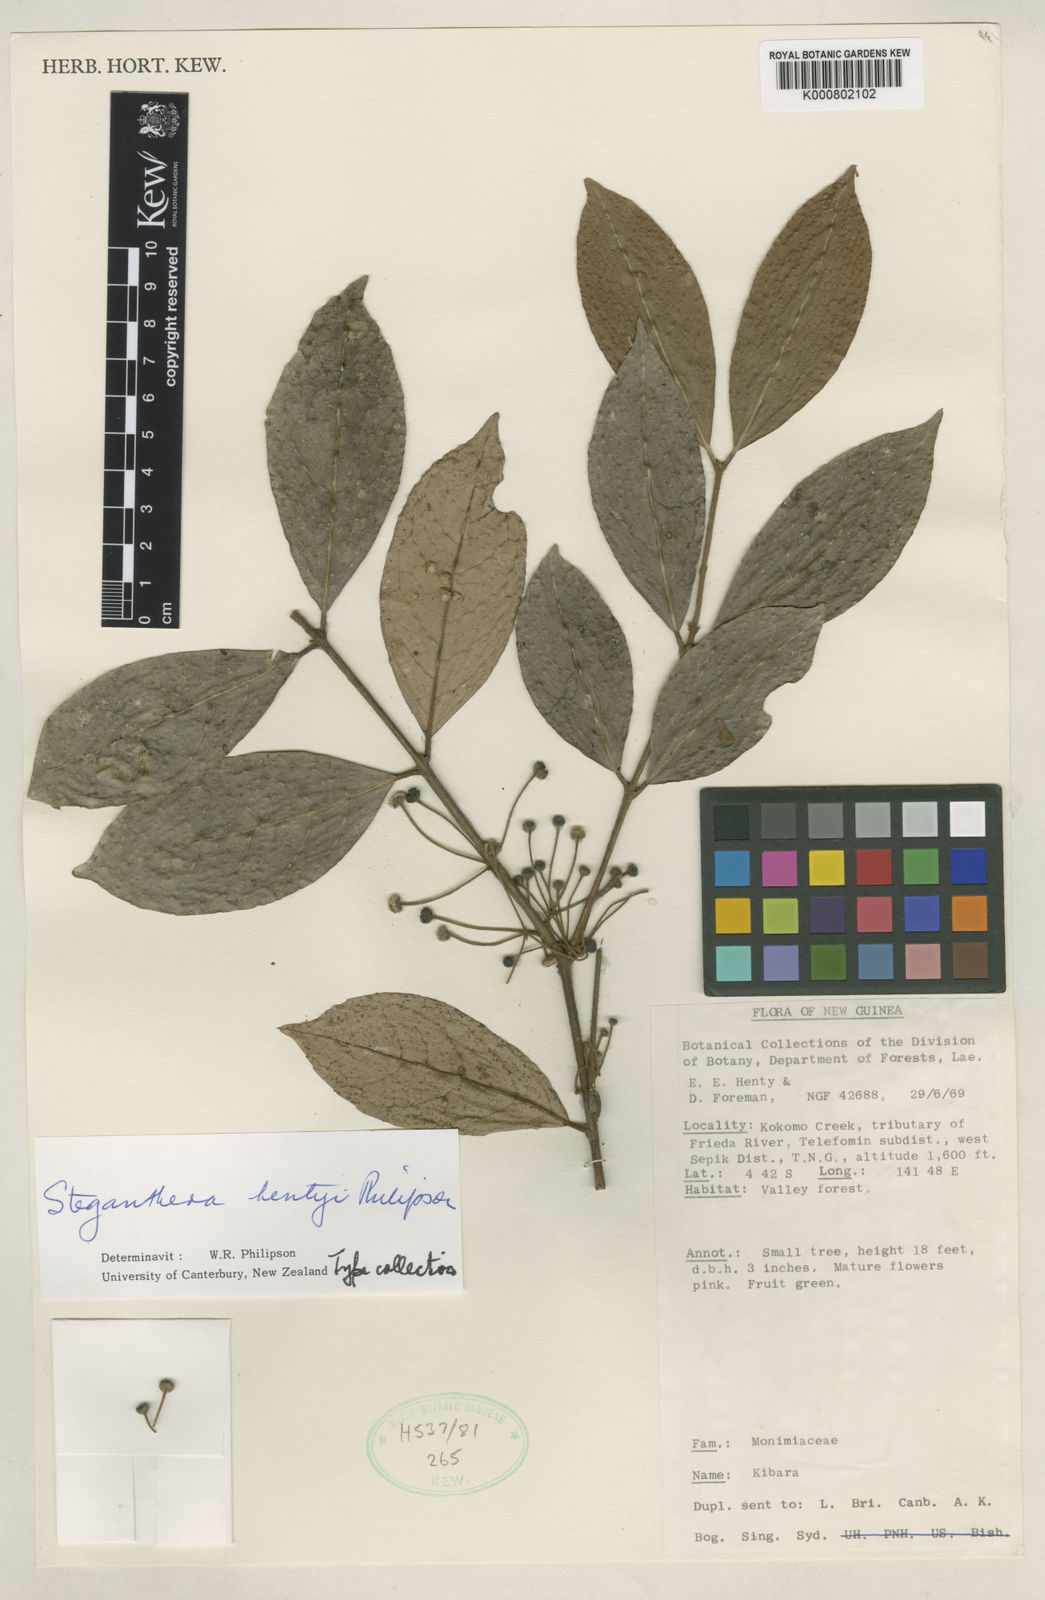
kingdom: Plantae
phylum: Tracheophyta
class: Magnoliopsida
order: Laurales
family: Monimiaceae
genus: Steganthera
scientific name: Steganthera hentyi
